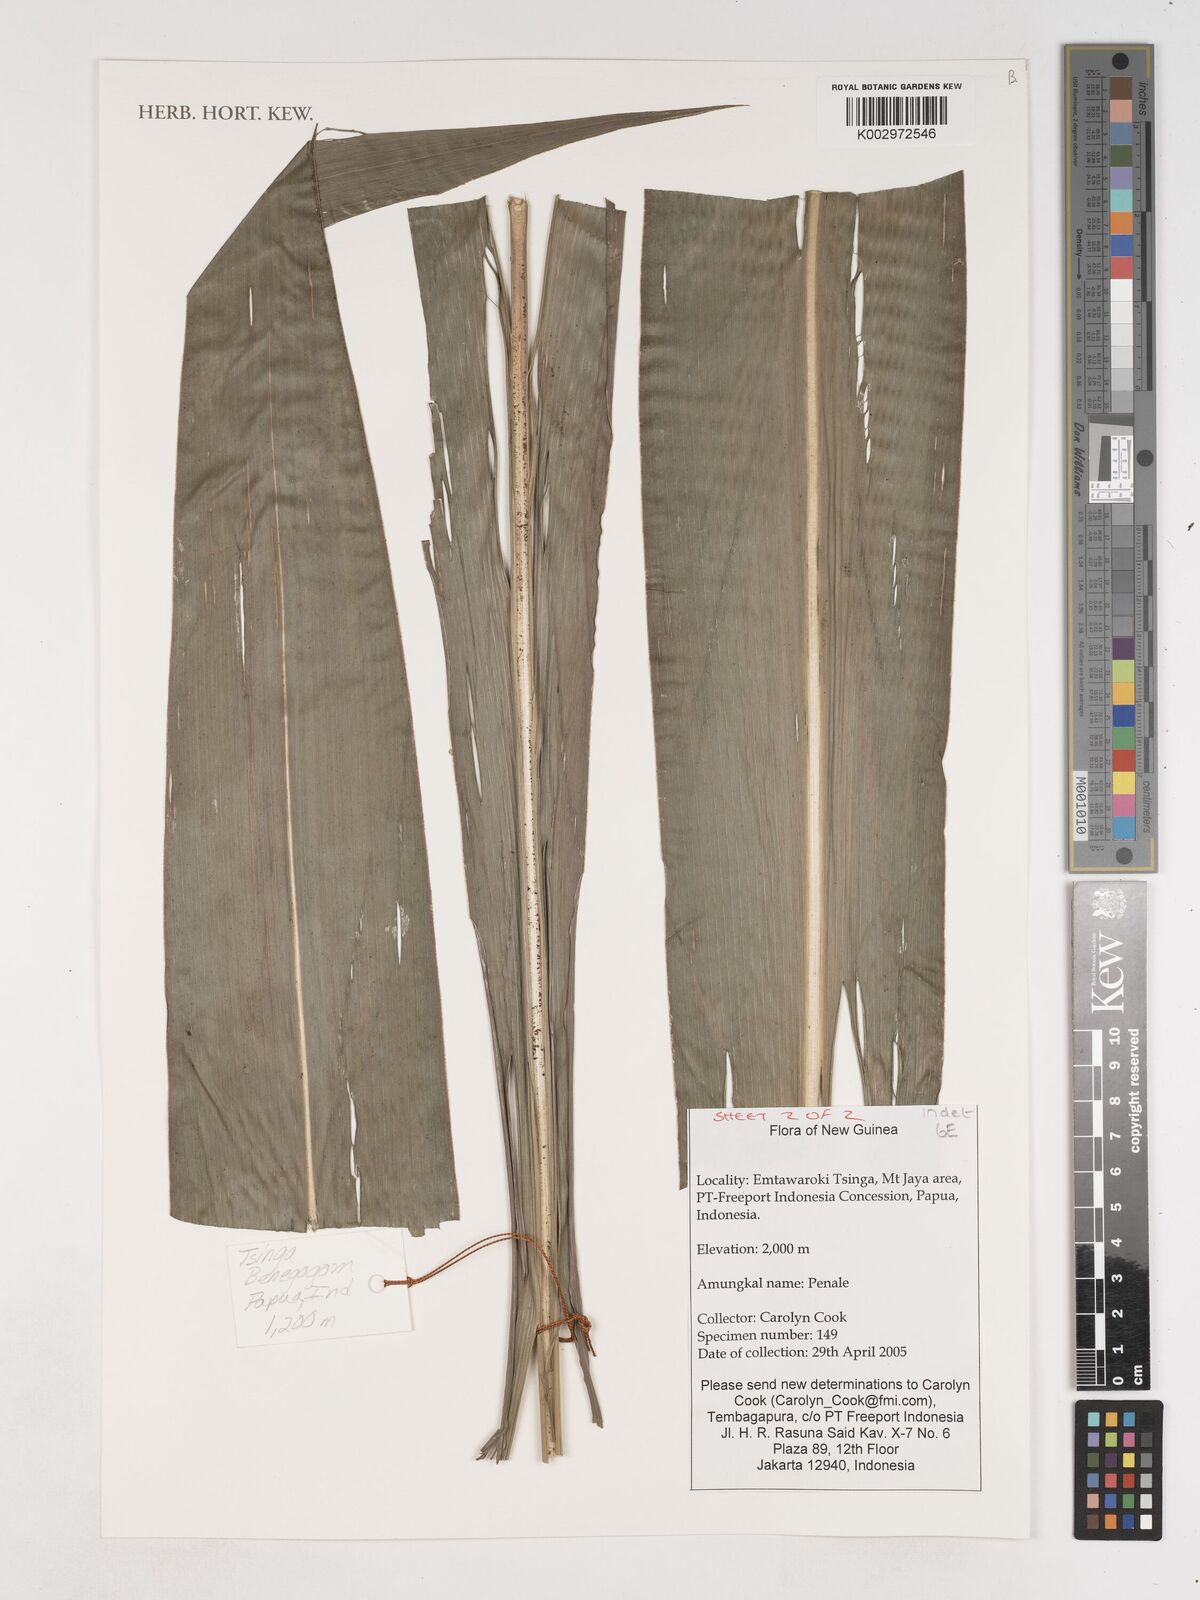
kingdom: Plantae
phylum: Tracheophyta
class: Liliopsida
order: Asparagales
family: Asparagaceae
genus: Cordyline
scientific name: Cordyline
